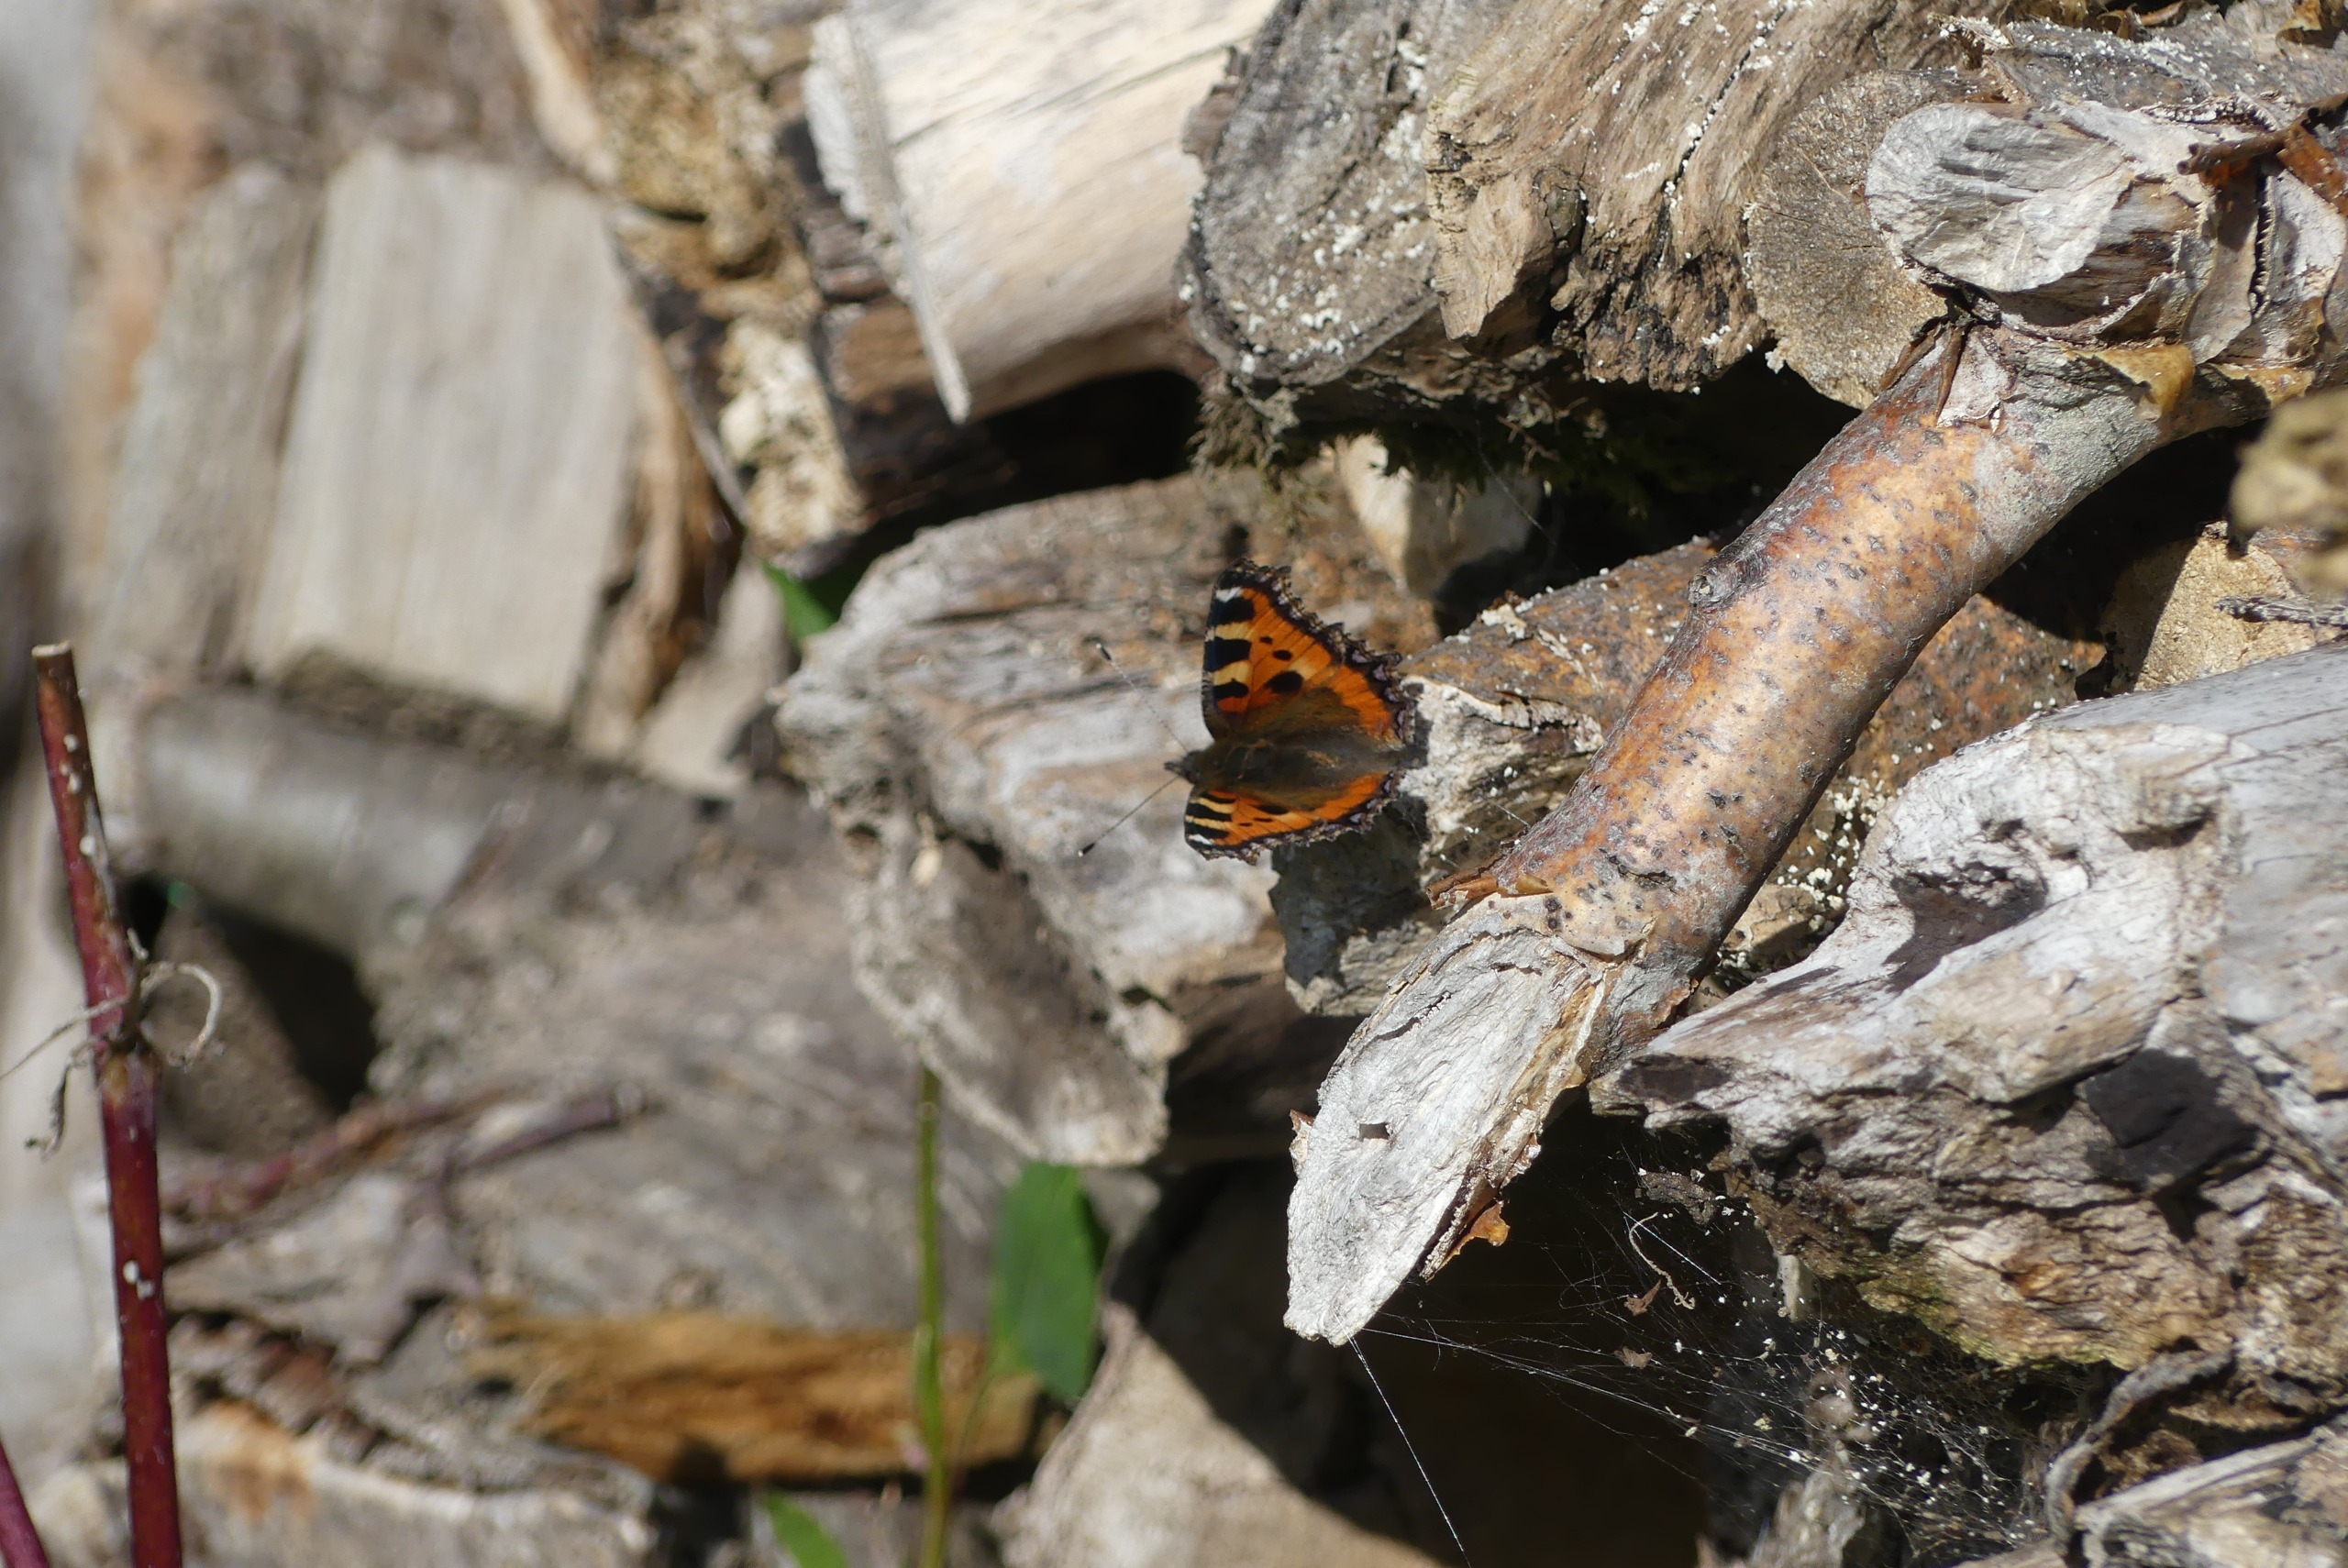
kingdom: Animalia
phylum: Arthropoda
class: Insecta
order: Lepidoptera
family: Nymphalidae
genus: Aglais
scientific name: Aglais urticae
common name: Nældens takvinge
